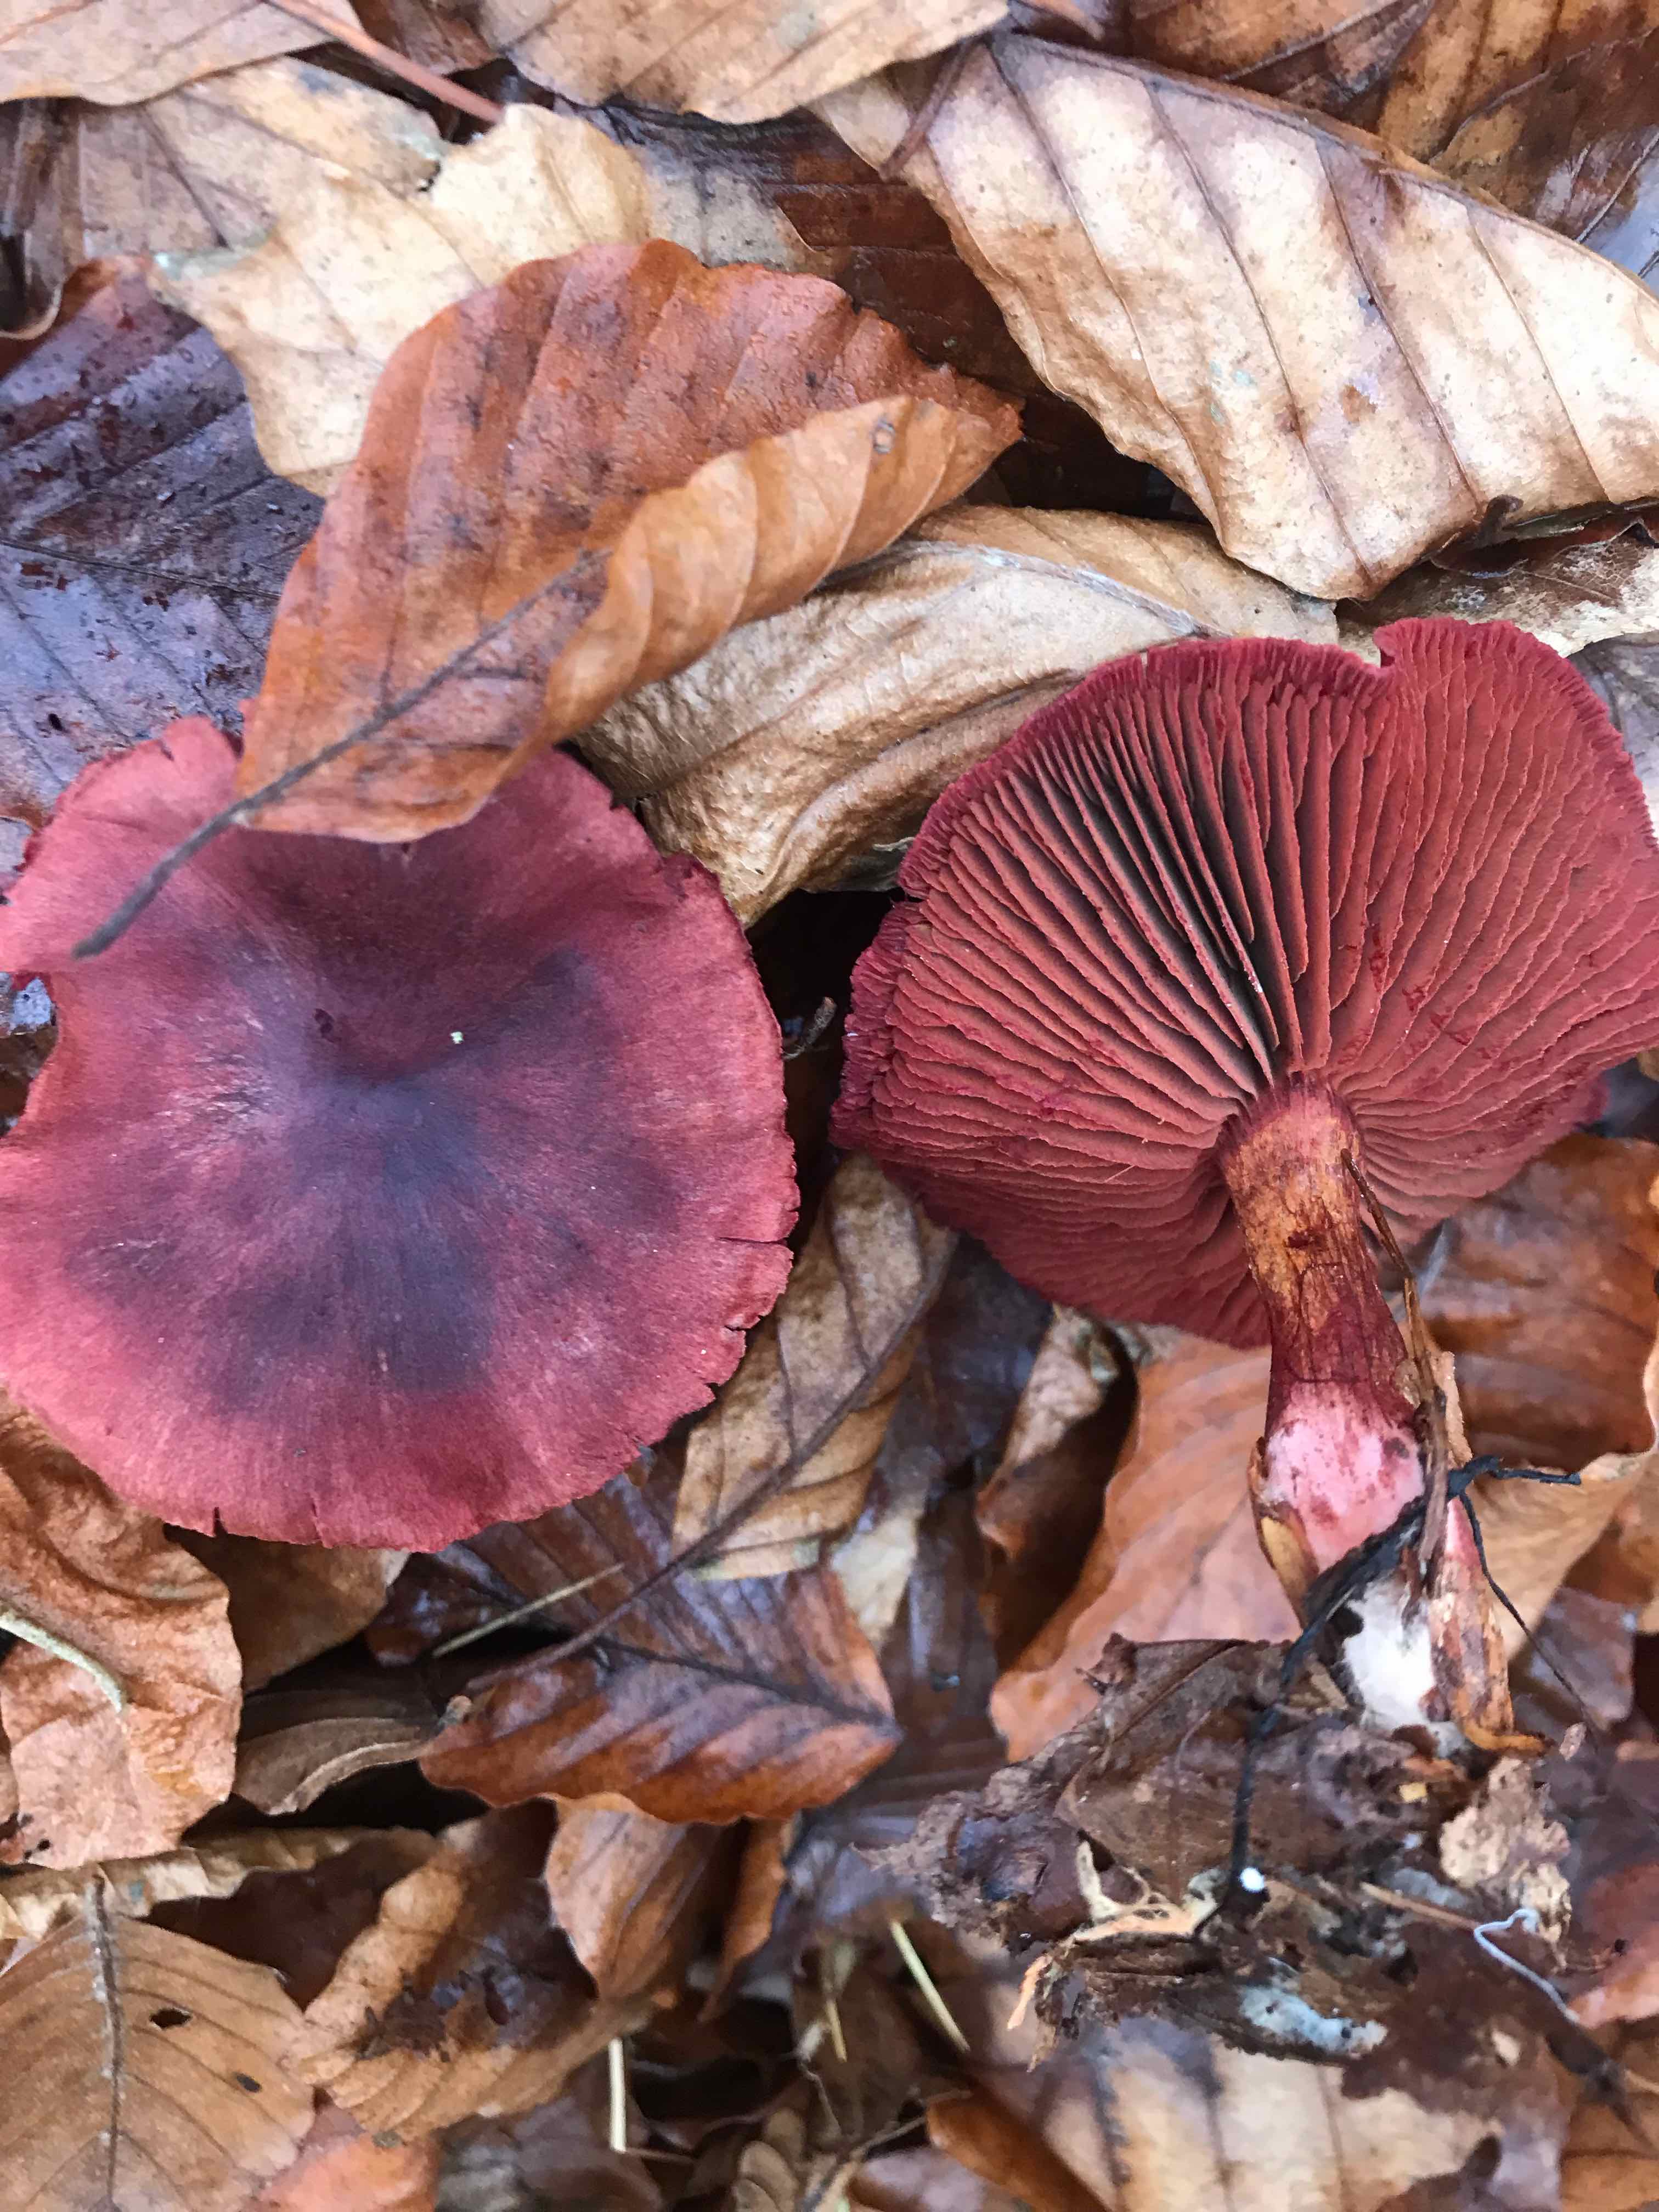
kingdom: Fungi
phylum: Basidiomycota
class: Agaricomycetes
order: Agaricales
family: Cortinariaceae
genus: Cortinarius
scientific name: Cortinarius sanguineus
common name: Bloodred webcap
